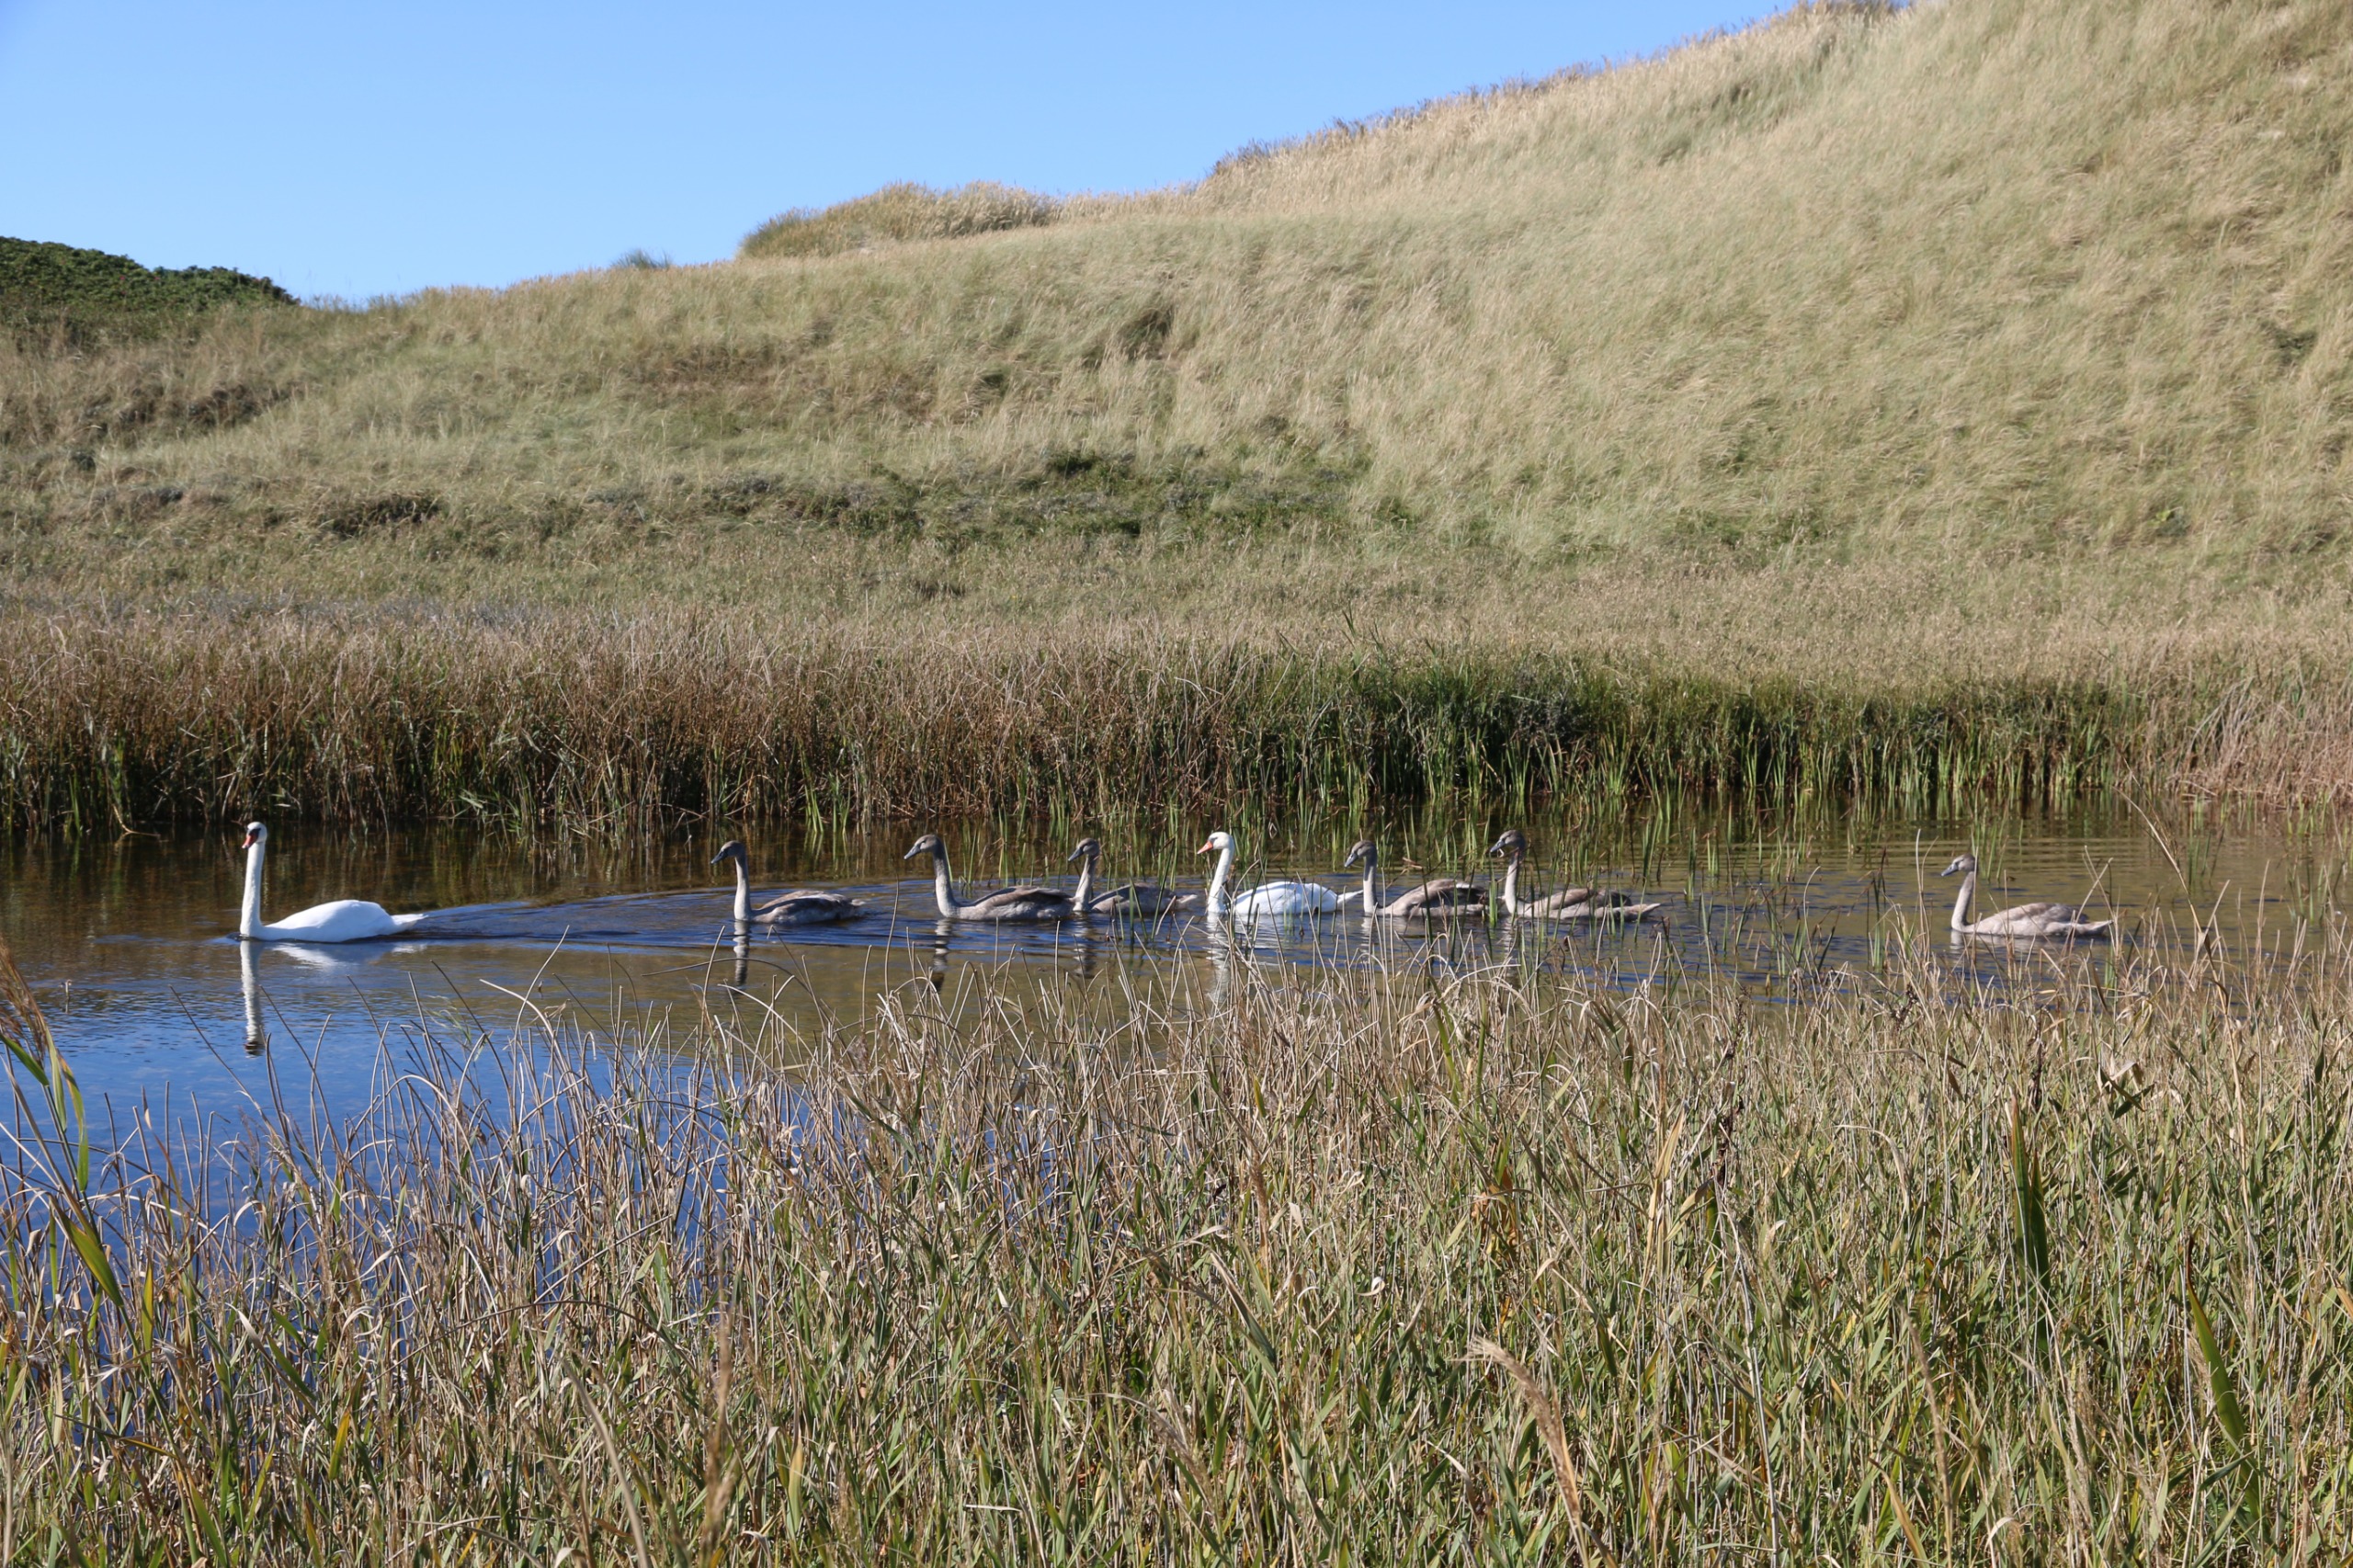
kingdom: Animalia
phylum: Chordata
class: Aves
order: Anseriformes
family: Anatidae
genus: Cygnus
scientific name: Cygnus olor
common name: Knopsvane
